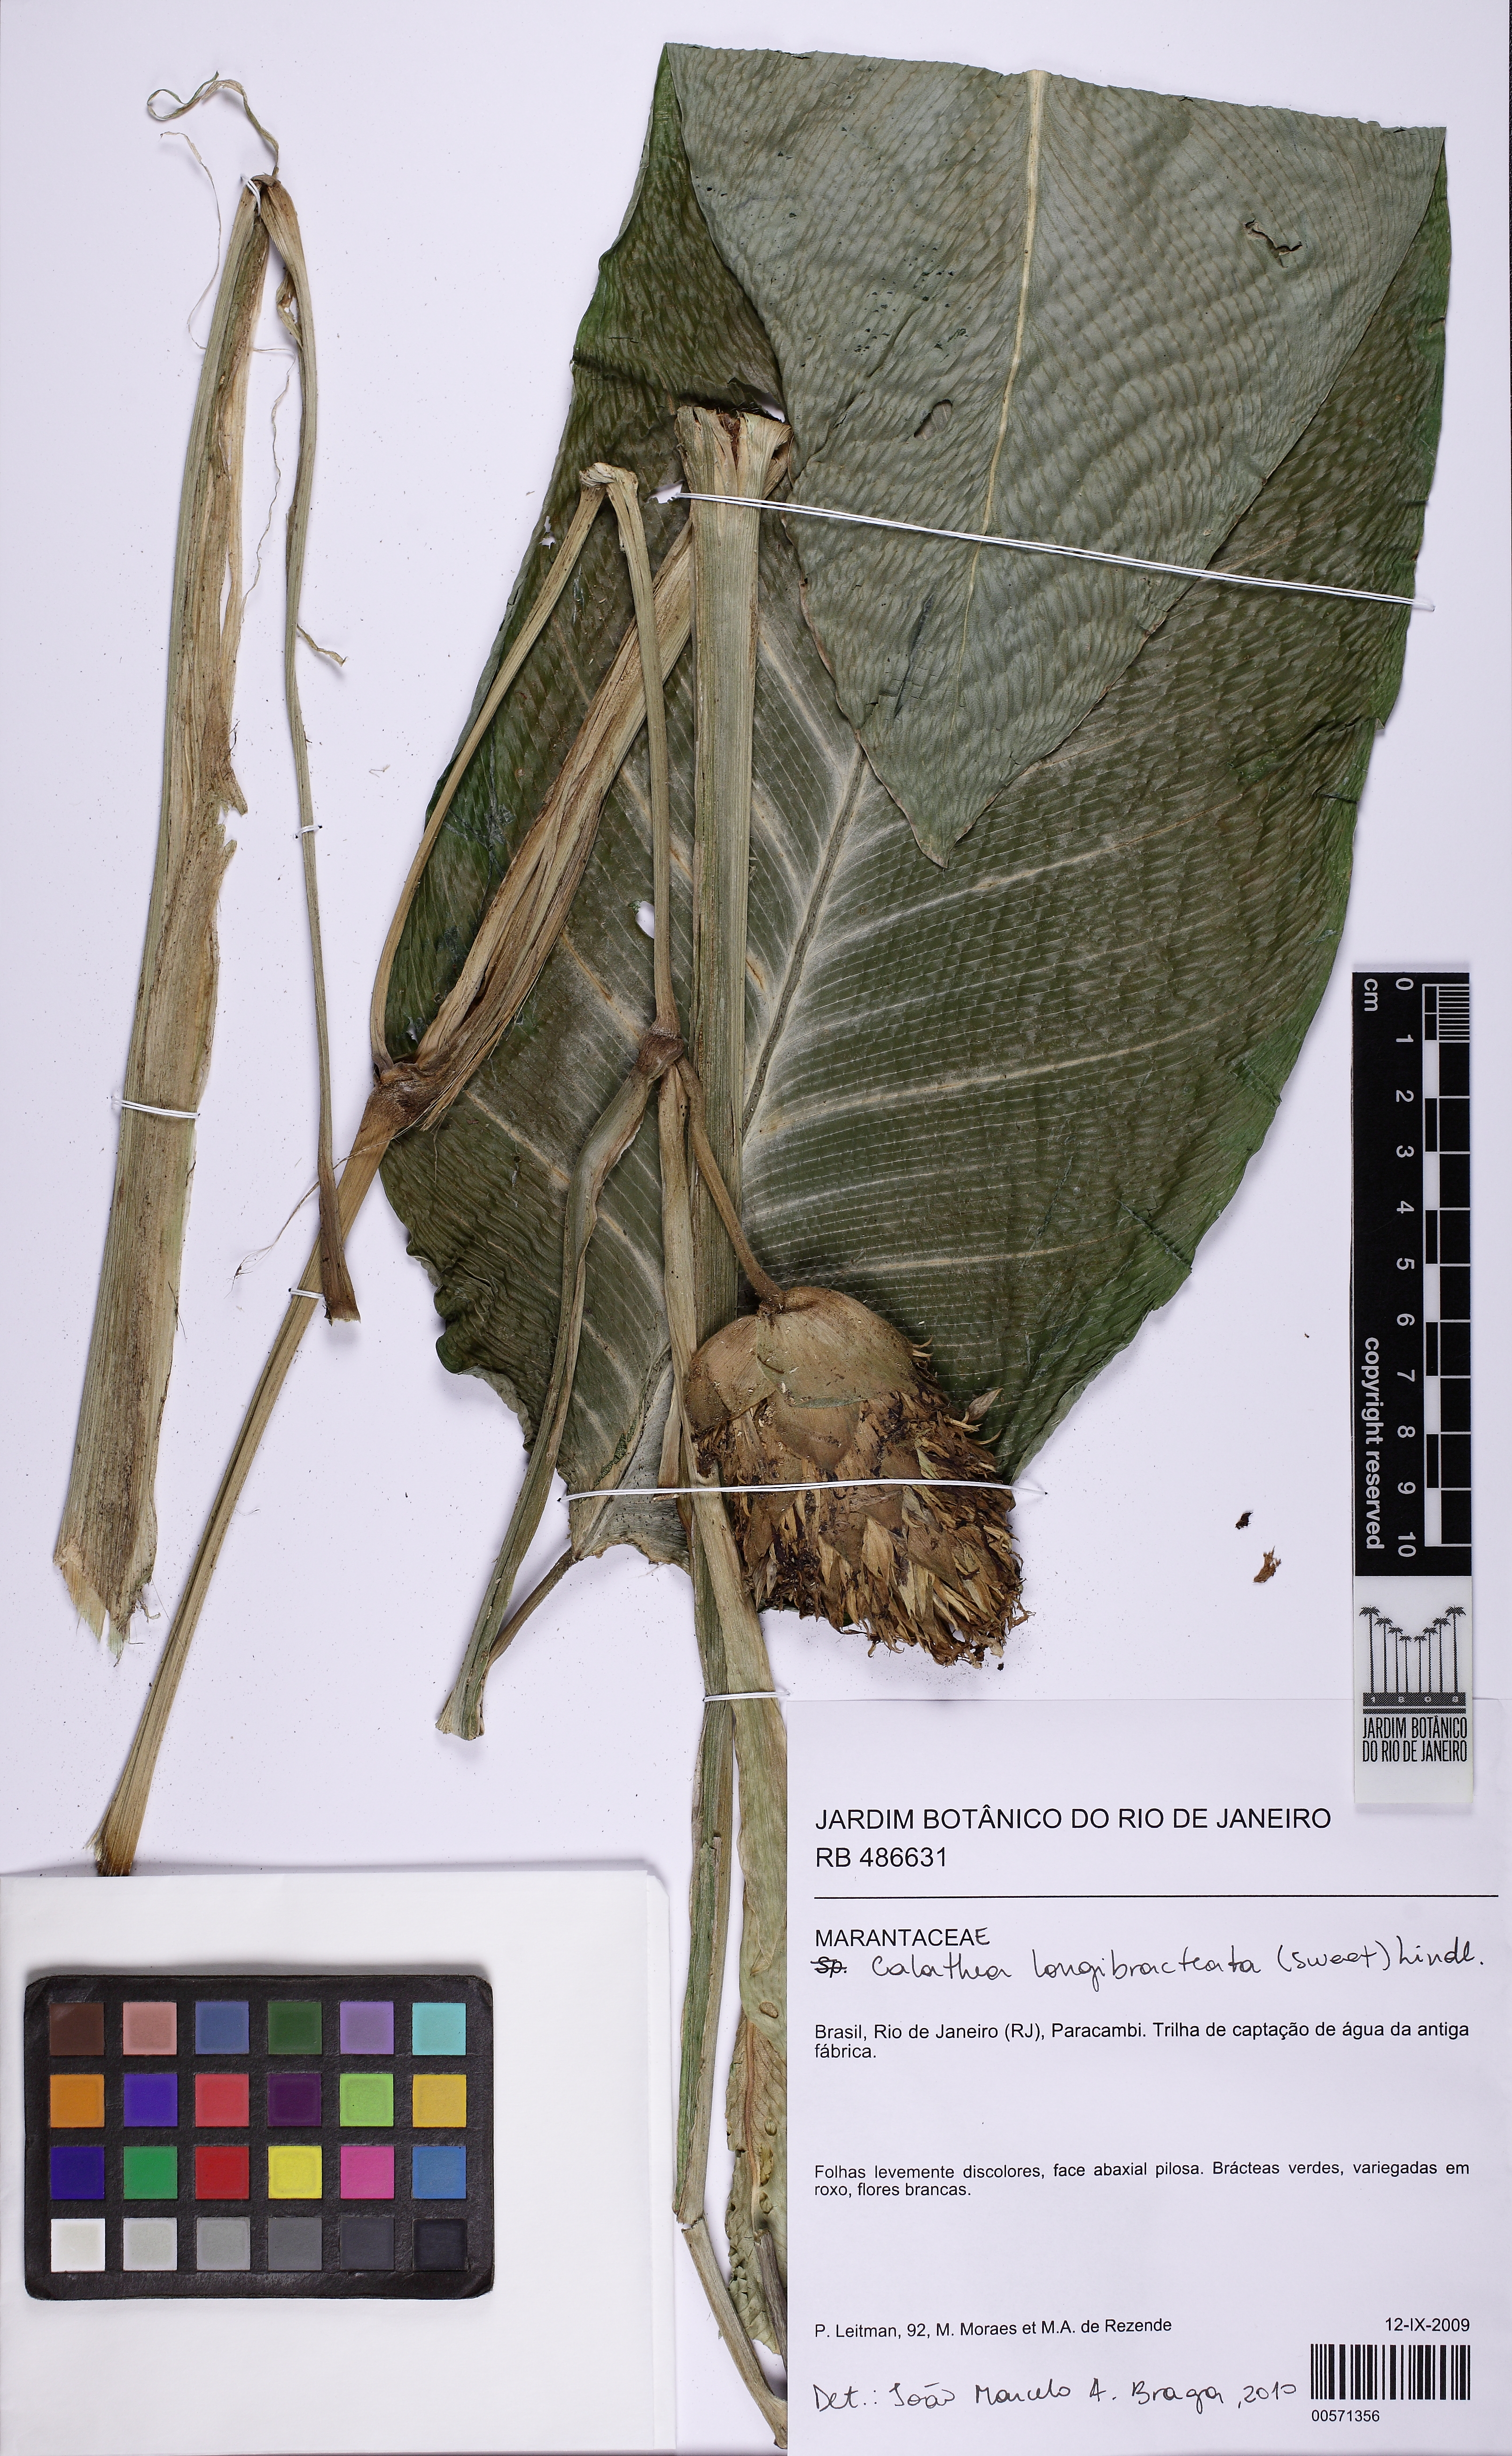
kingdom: Plantae
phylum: Tracheophyta
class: Liliopsida
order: Zingiberales
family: Marantaceae
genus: Goeppertia
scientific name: Goeppertia arrabidae
